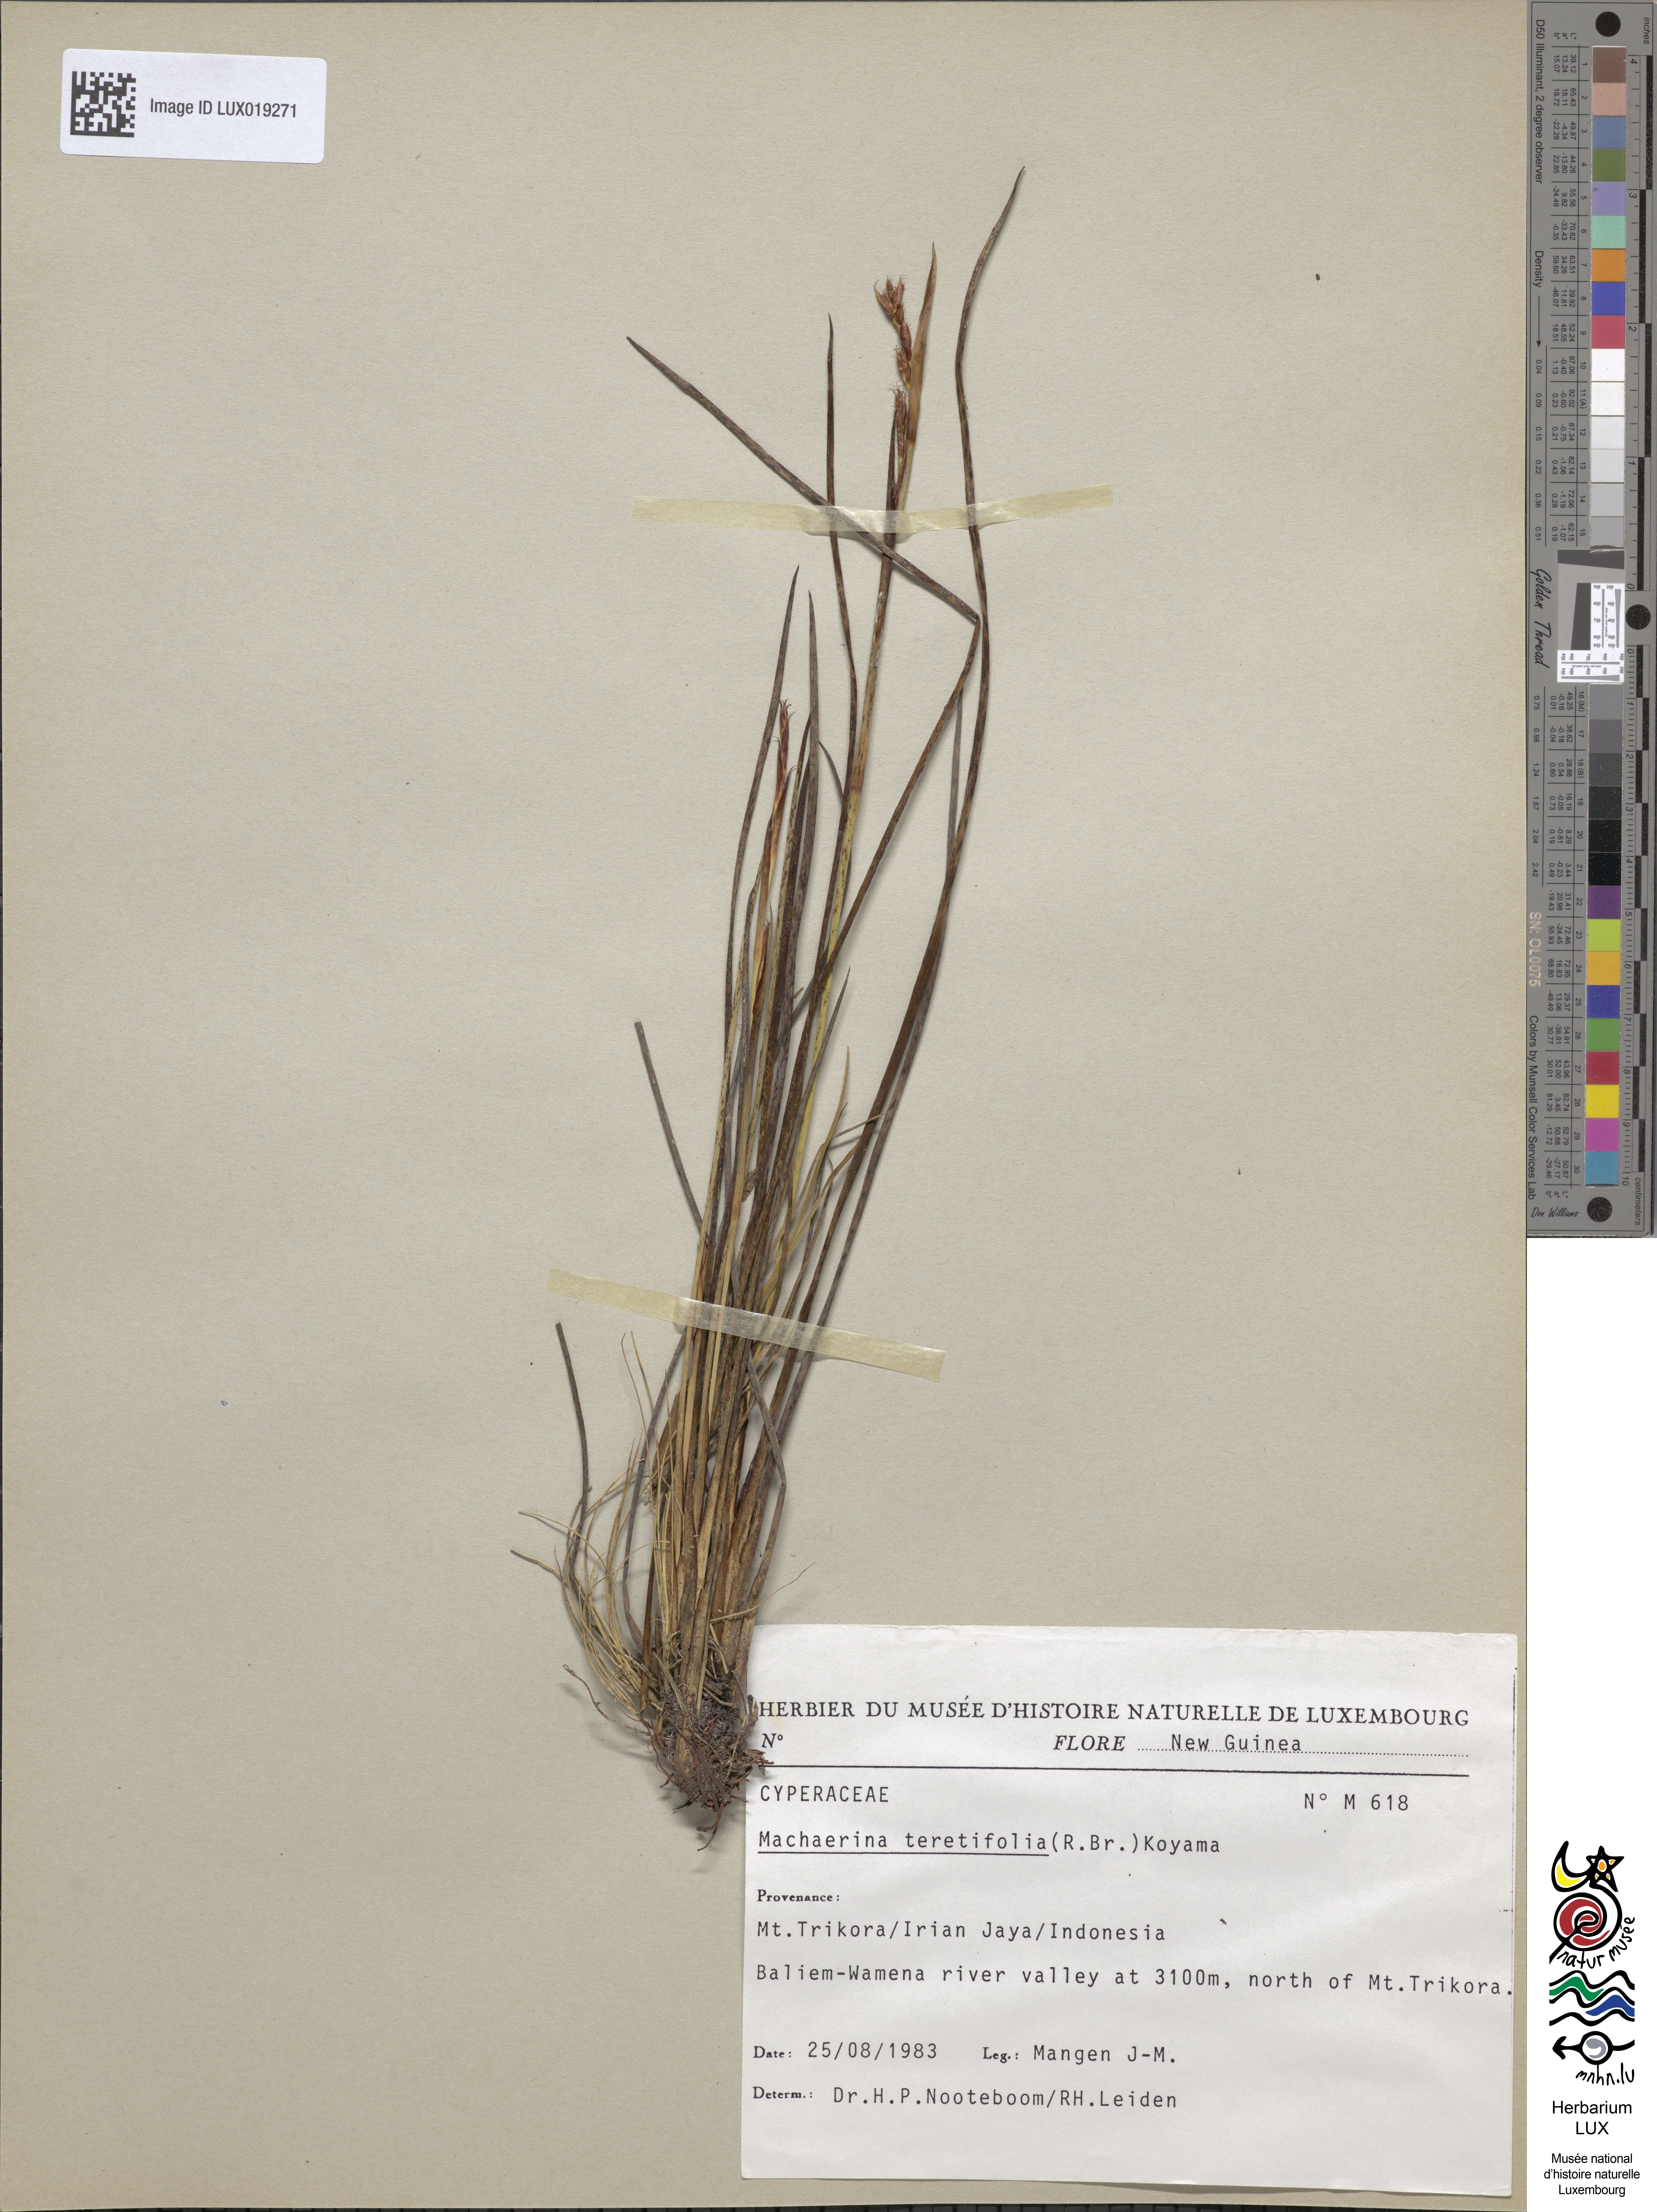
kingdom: Plantae
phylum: Tracheophyta
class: Liliopsida
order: Poales
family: Cyperaceae
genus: Machaerina
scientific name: Machaerina teretifolia
